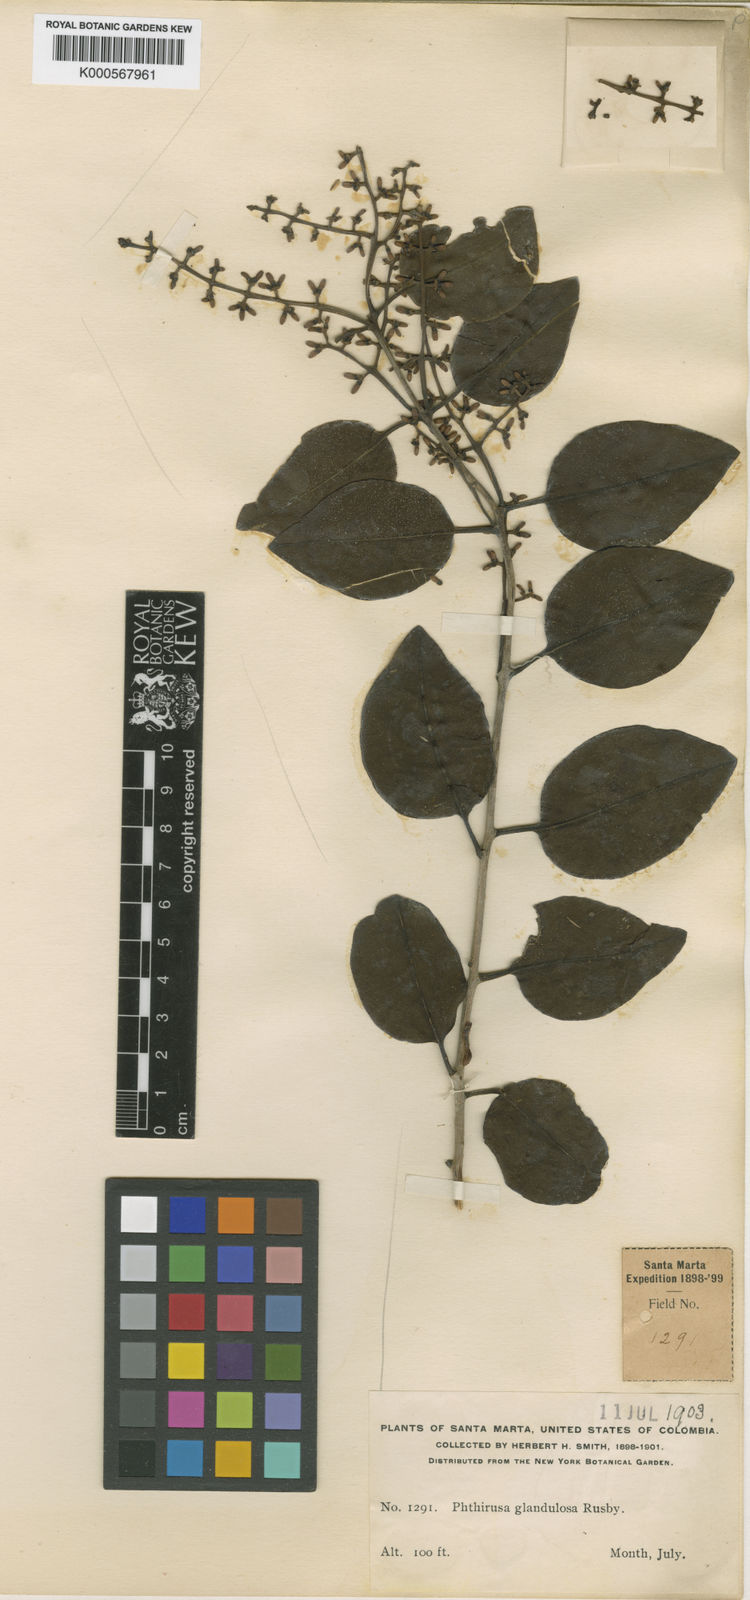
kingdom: Plantae
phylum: Tracheophyta
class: Magnoliopsida
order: Santalales
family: Loranthaceae
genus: Phthirusa
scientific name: Phthirusa
